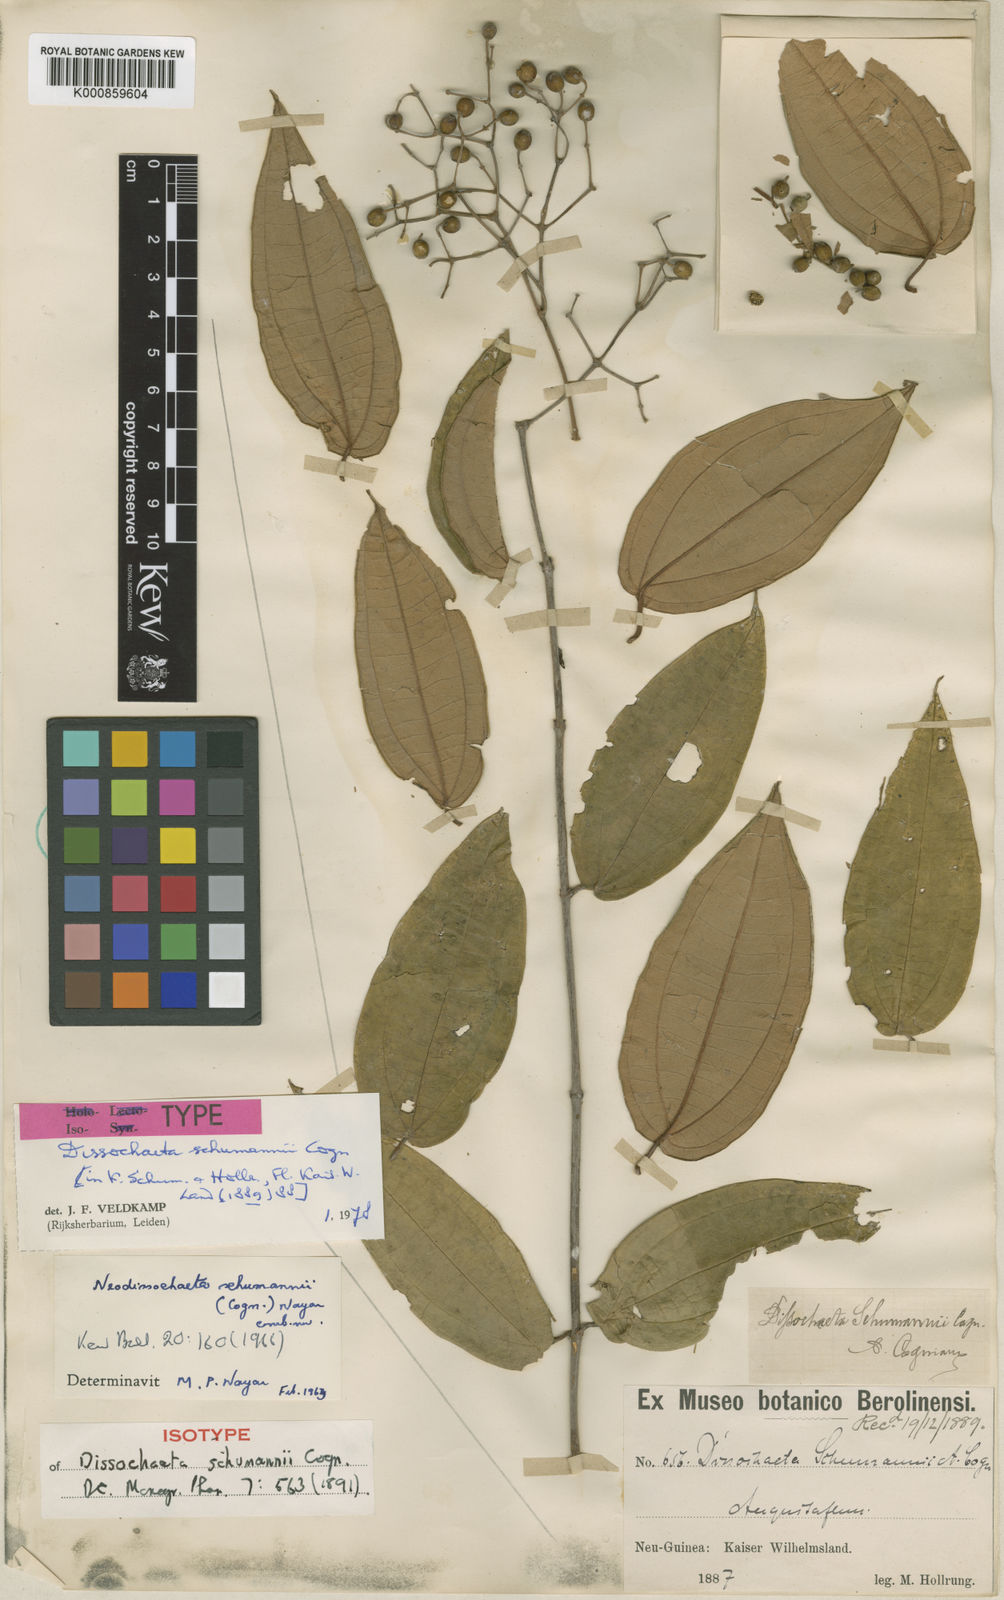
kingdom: Plantae
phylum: Tracheophyta
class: Magnoliopsida
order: Myrtales
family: Melastomataceae
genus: Dissochaeta
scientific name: Dissochaeta schumannii
